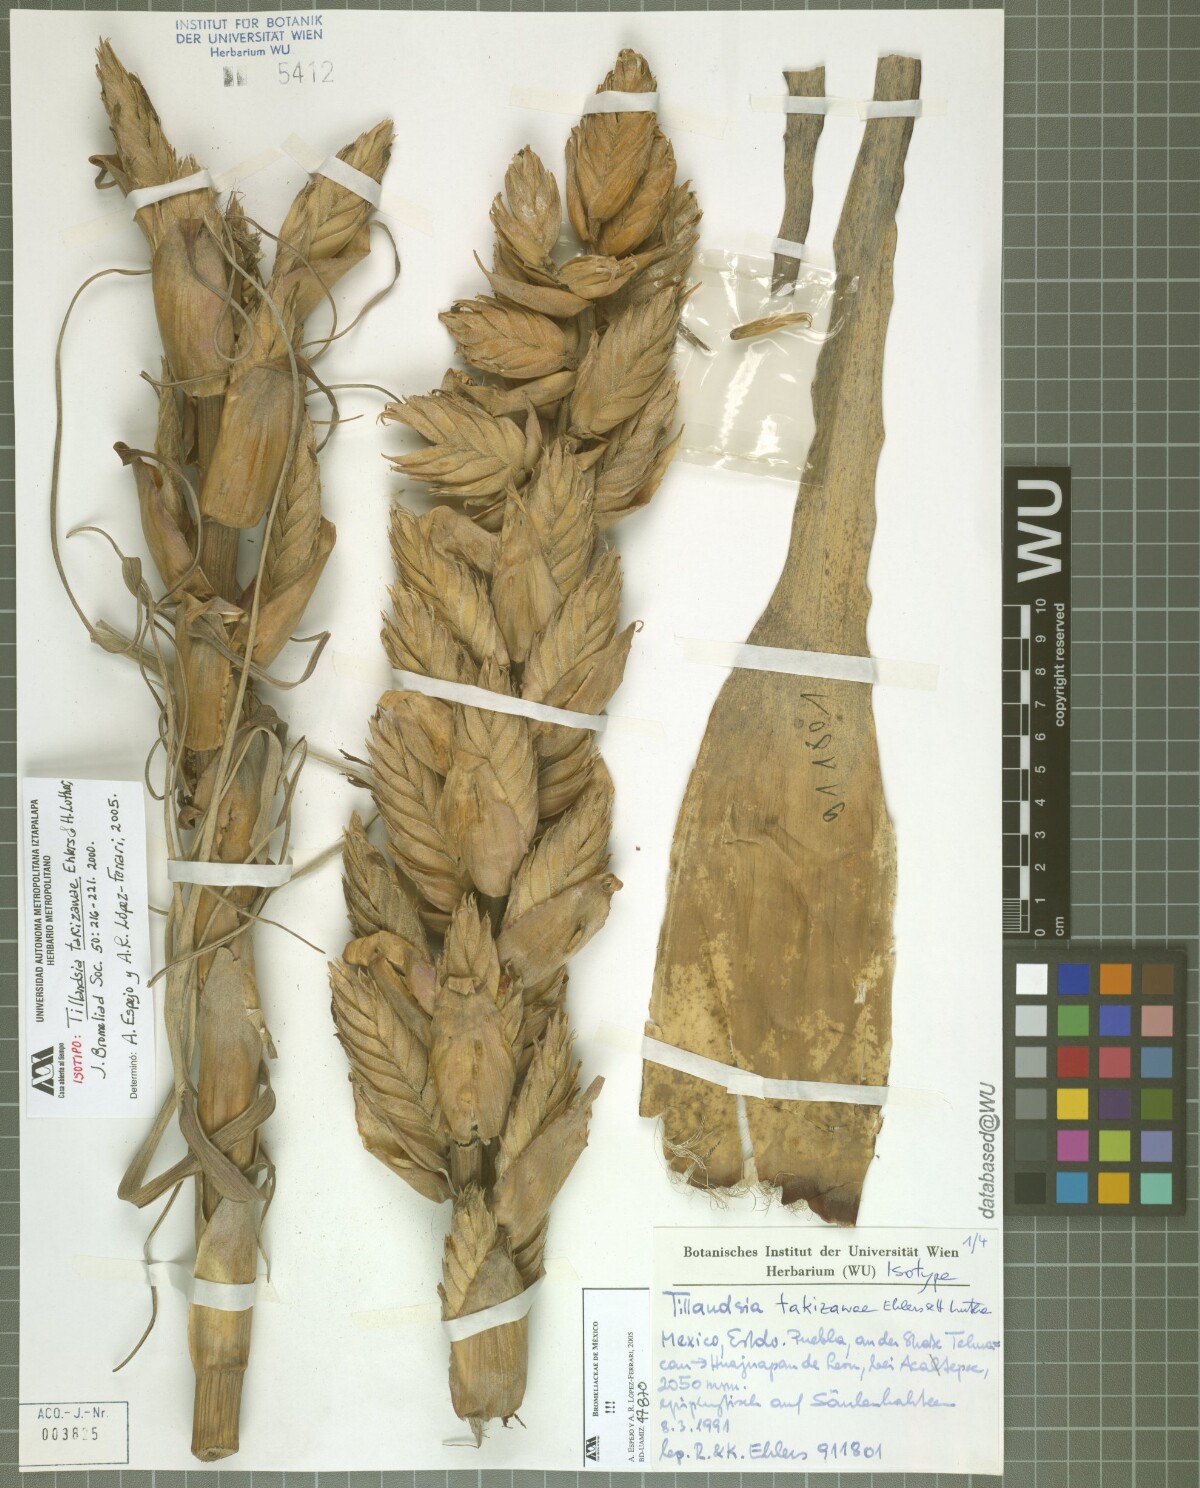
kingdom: Plantae
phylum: Tracheophyta
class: Liliopsida
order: Poales
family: Bromeliaceae
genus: Tillandsia
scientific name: Tillandsia takizawae
